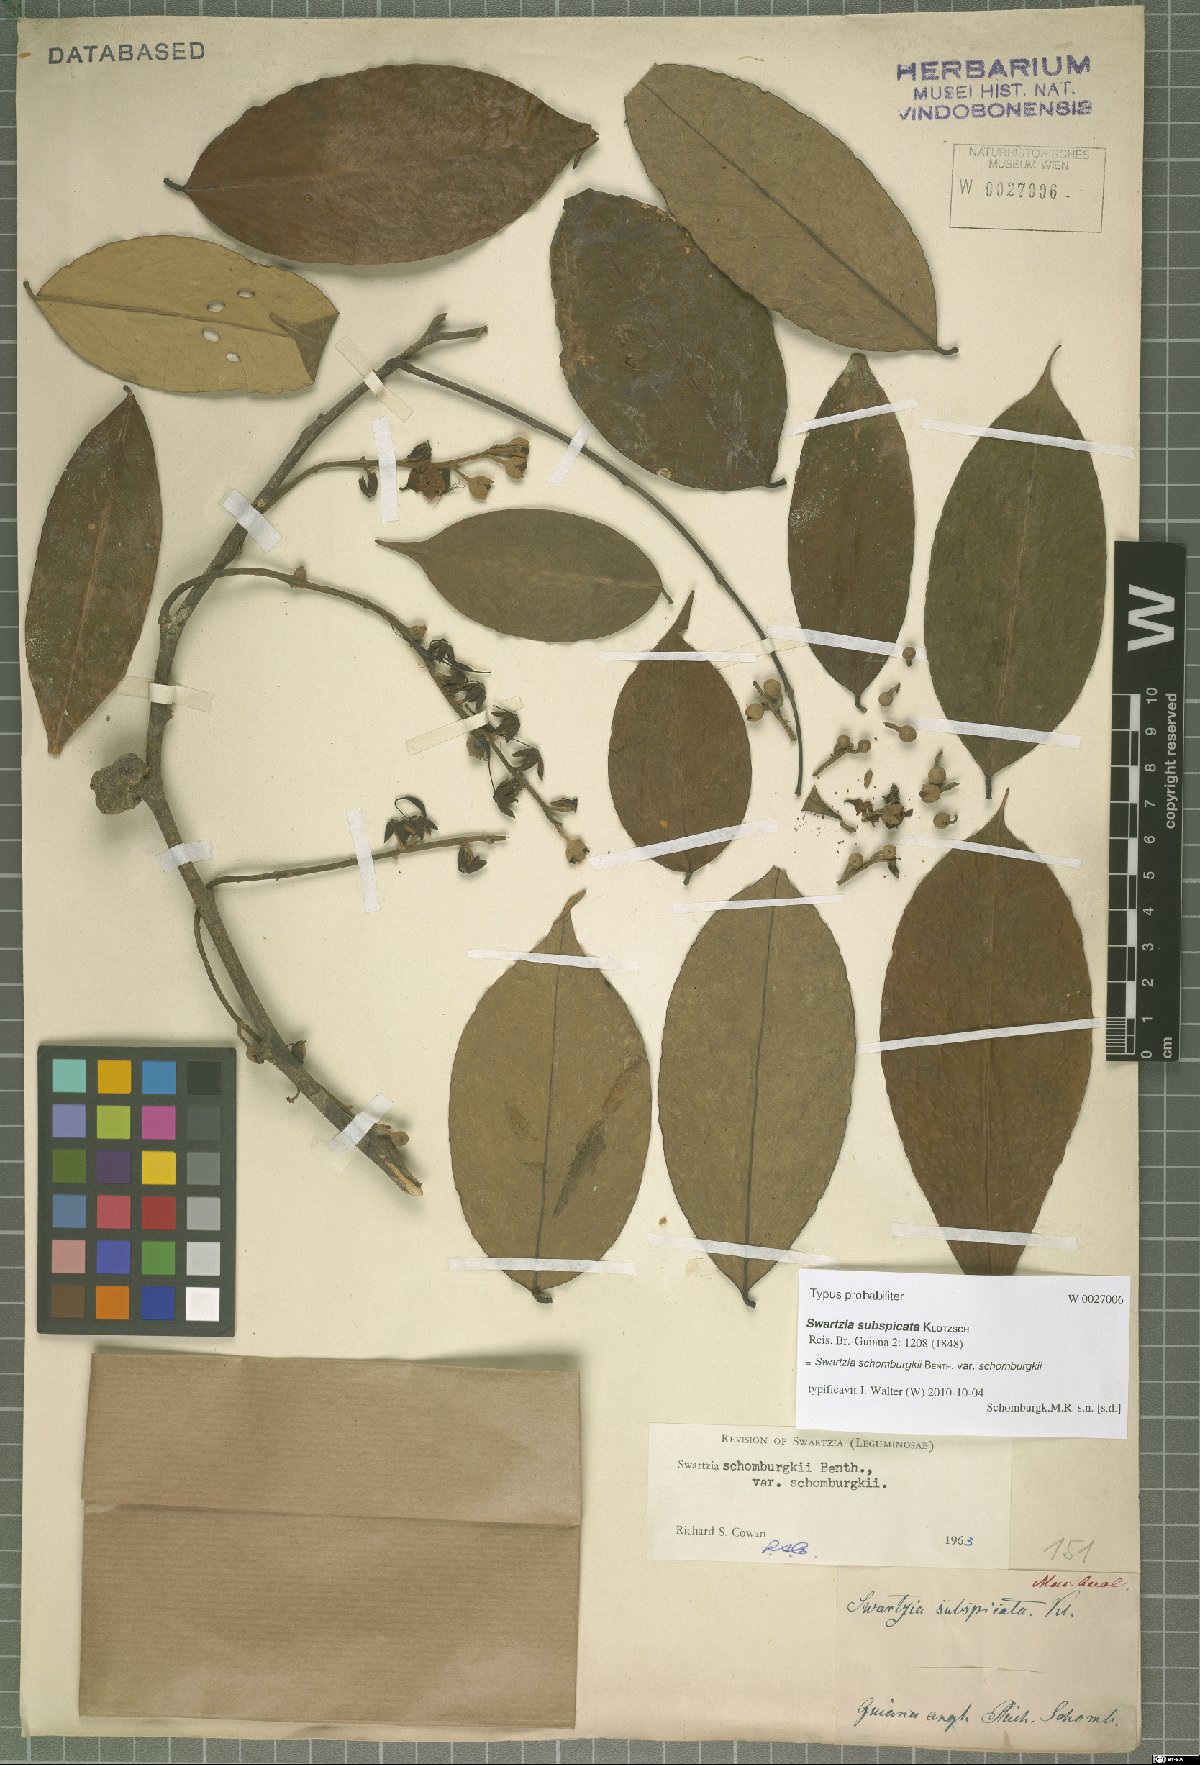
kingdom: Plantae
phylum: Tracheophyta
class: Magnoliopsida
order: Fabales
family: Fabaceae
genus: Swartzia
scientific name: Swartzia schomburgkii
